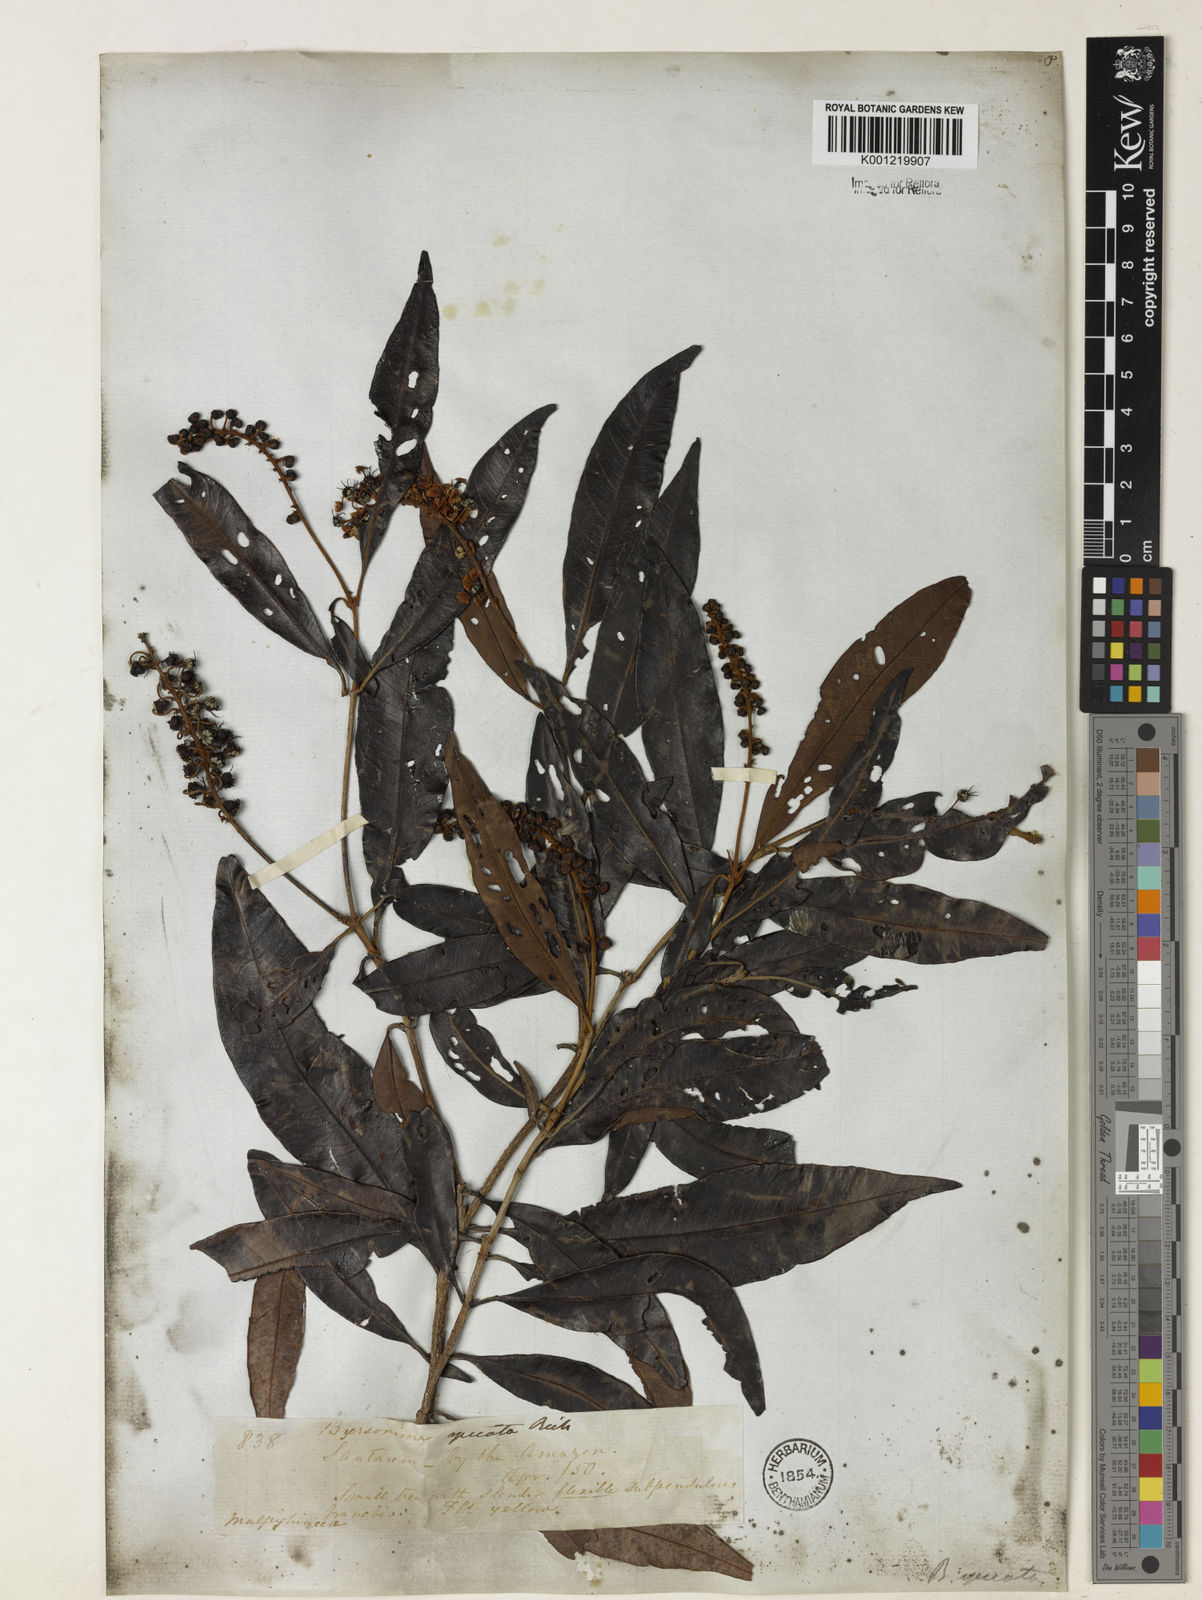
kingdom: Plantae
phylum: Tracheophyta
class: Magnoliopsida
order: Malpighiales
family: Malpighiaceae
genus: Byrsonima
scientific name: Byrsonima
